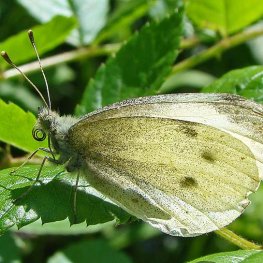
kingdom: Animalia
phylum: Arthropoda
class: Insecta
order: Lepidoptera
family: Pieridae
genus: Pieris
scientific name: Pieris rapae
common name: Cabbage White
